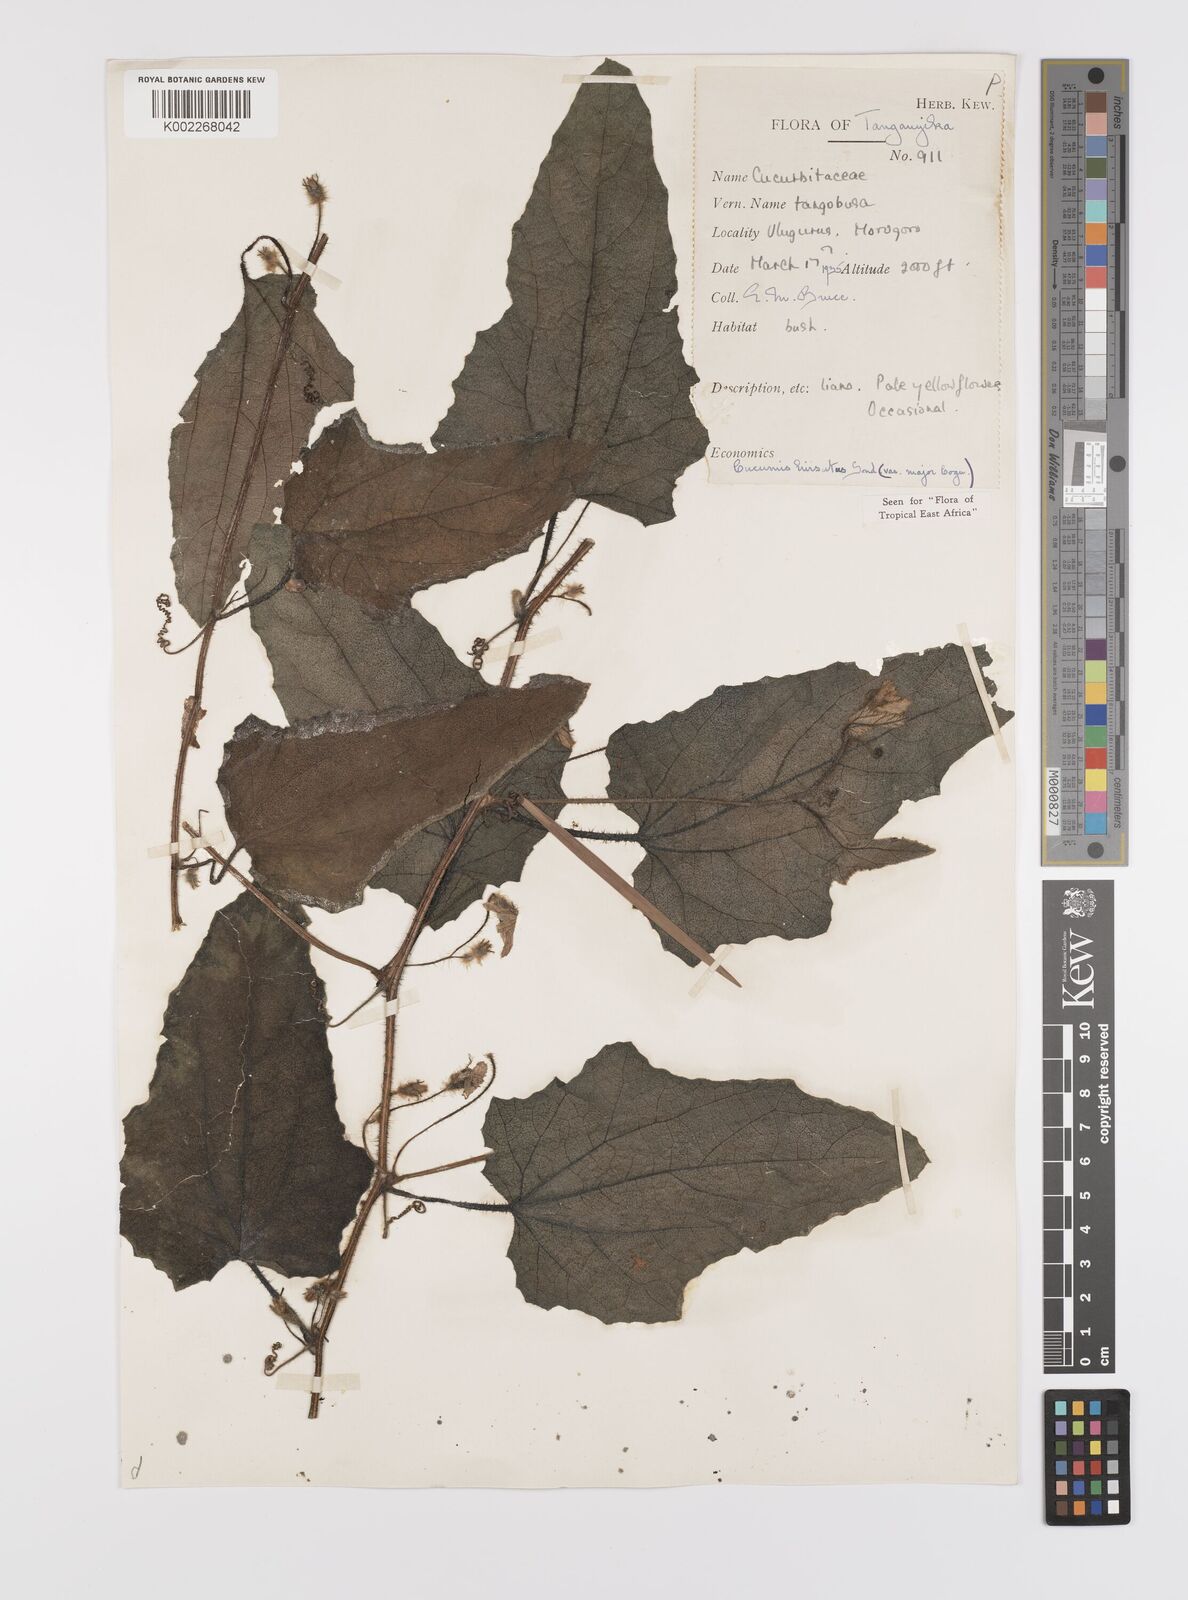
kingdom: Plantae
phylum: Tracheophyta
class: Magnoliopsida
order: Cucurbitales
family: Cucurbitaceae
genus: Cucumis
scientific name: Cucumis hirsutus
